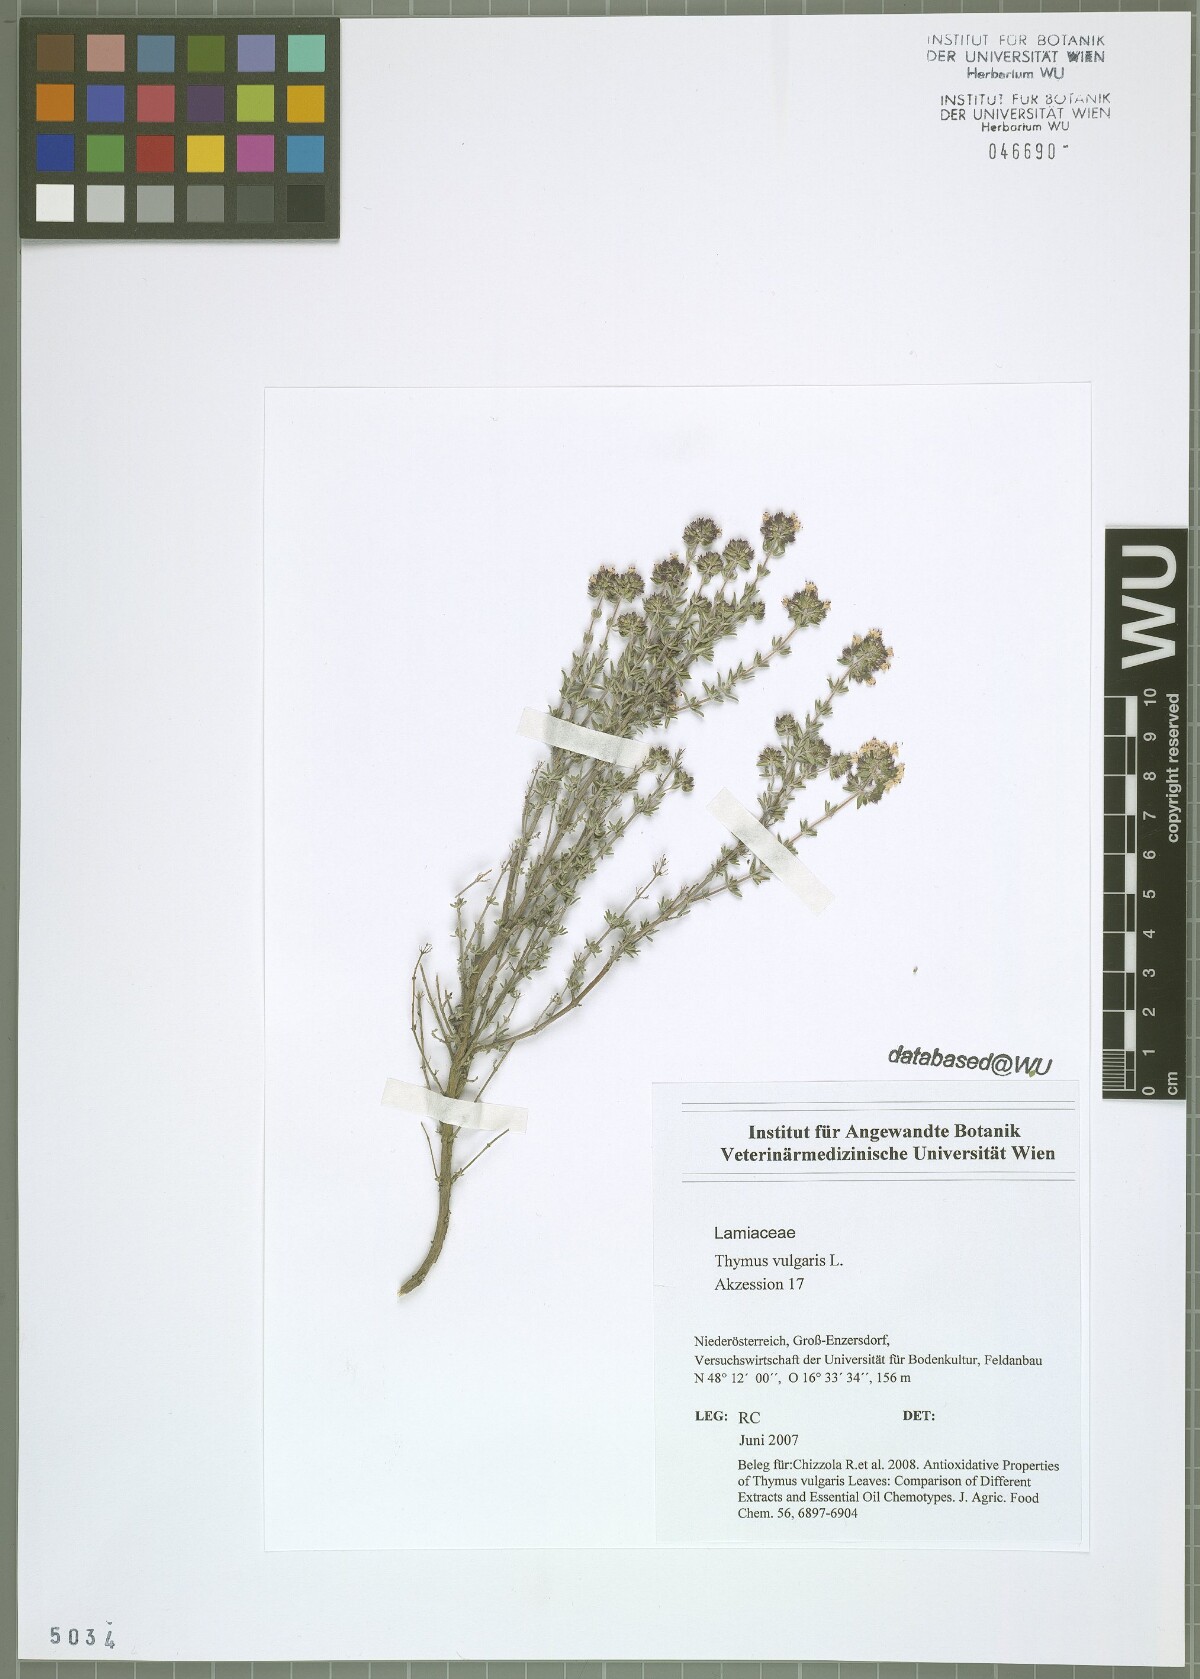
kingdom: Plantae
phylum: Tracheophyta
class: Magnoliopsida
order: Lamiales
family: Lamiaceae
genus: Thymus
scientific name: Thymus vulgaris
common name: Garden thyme
